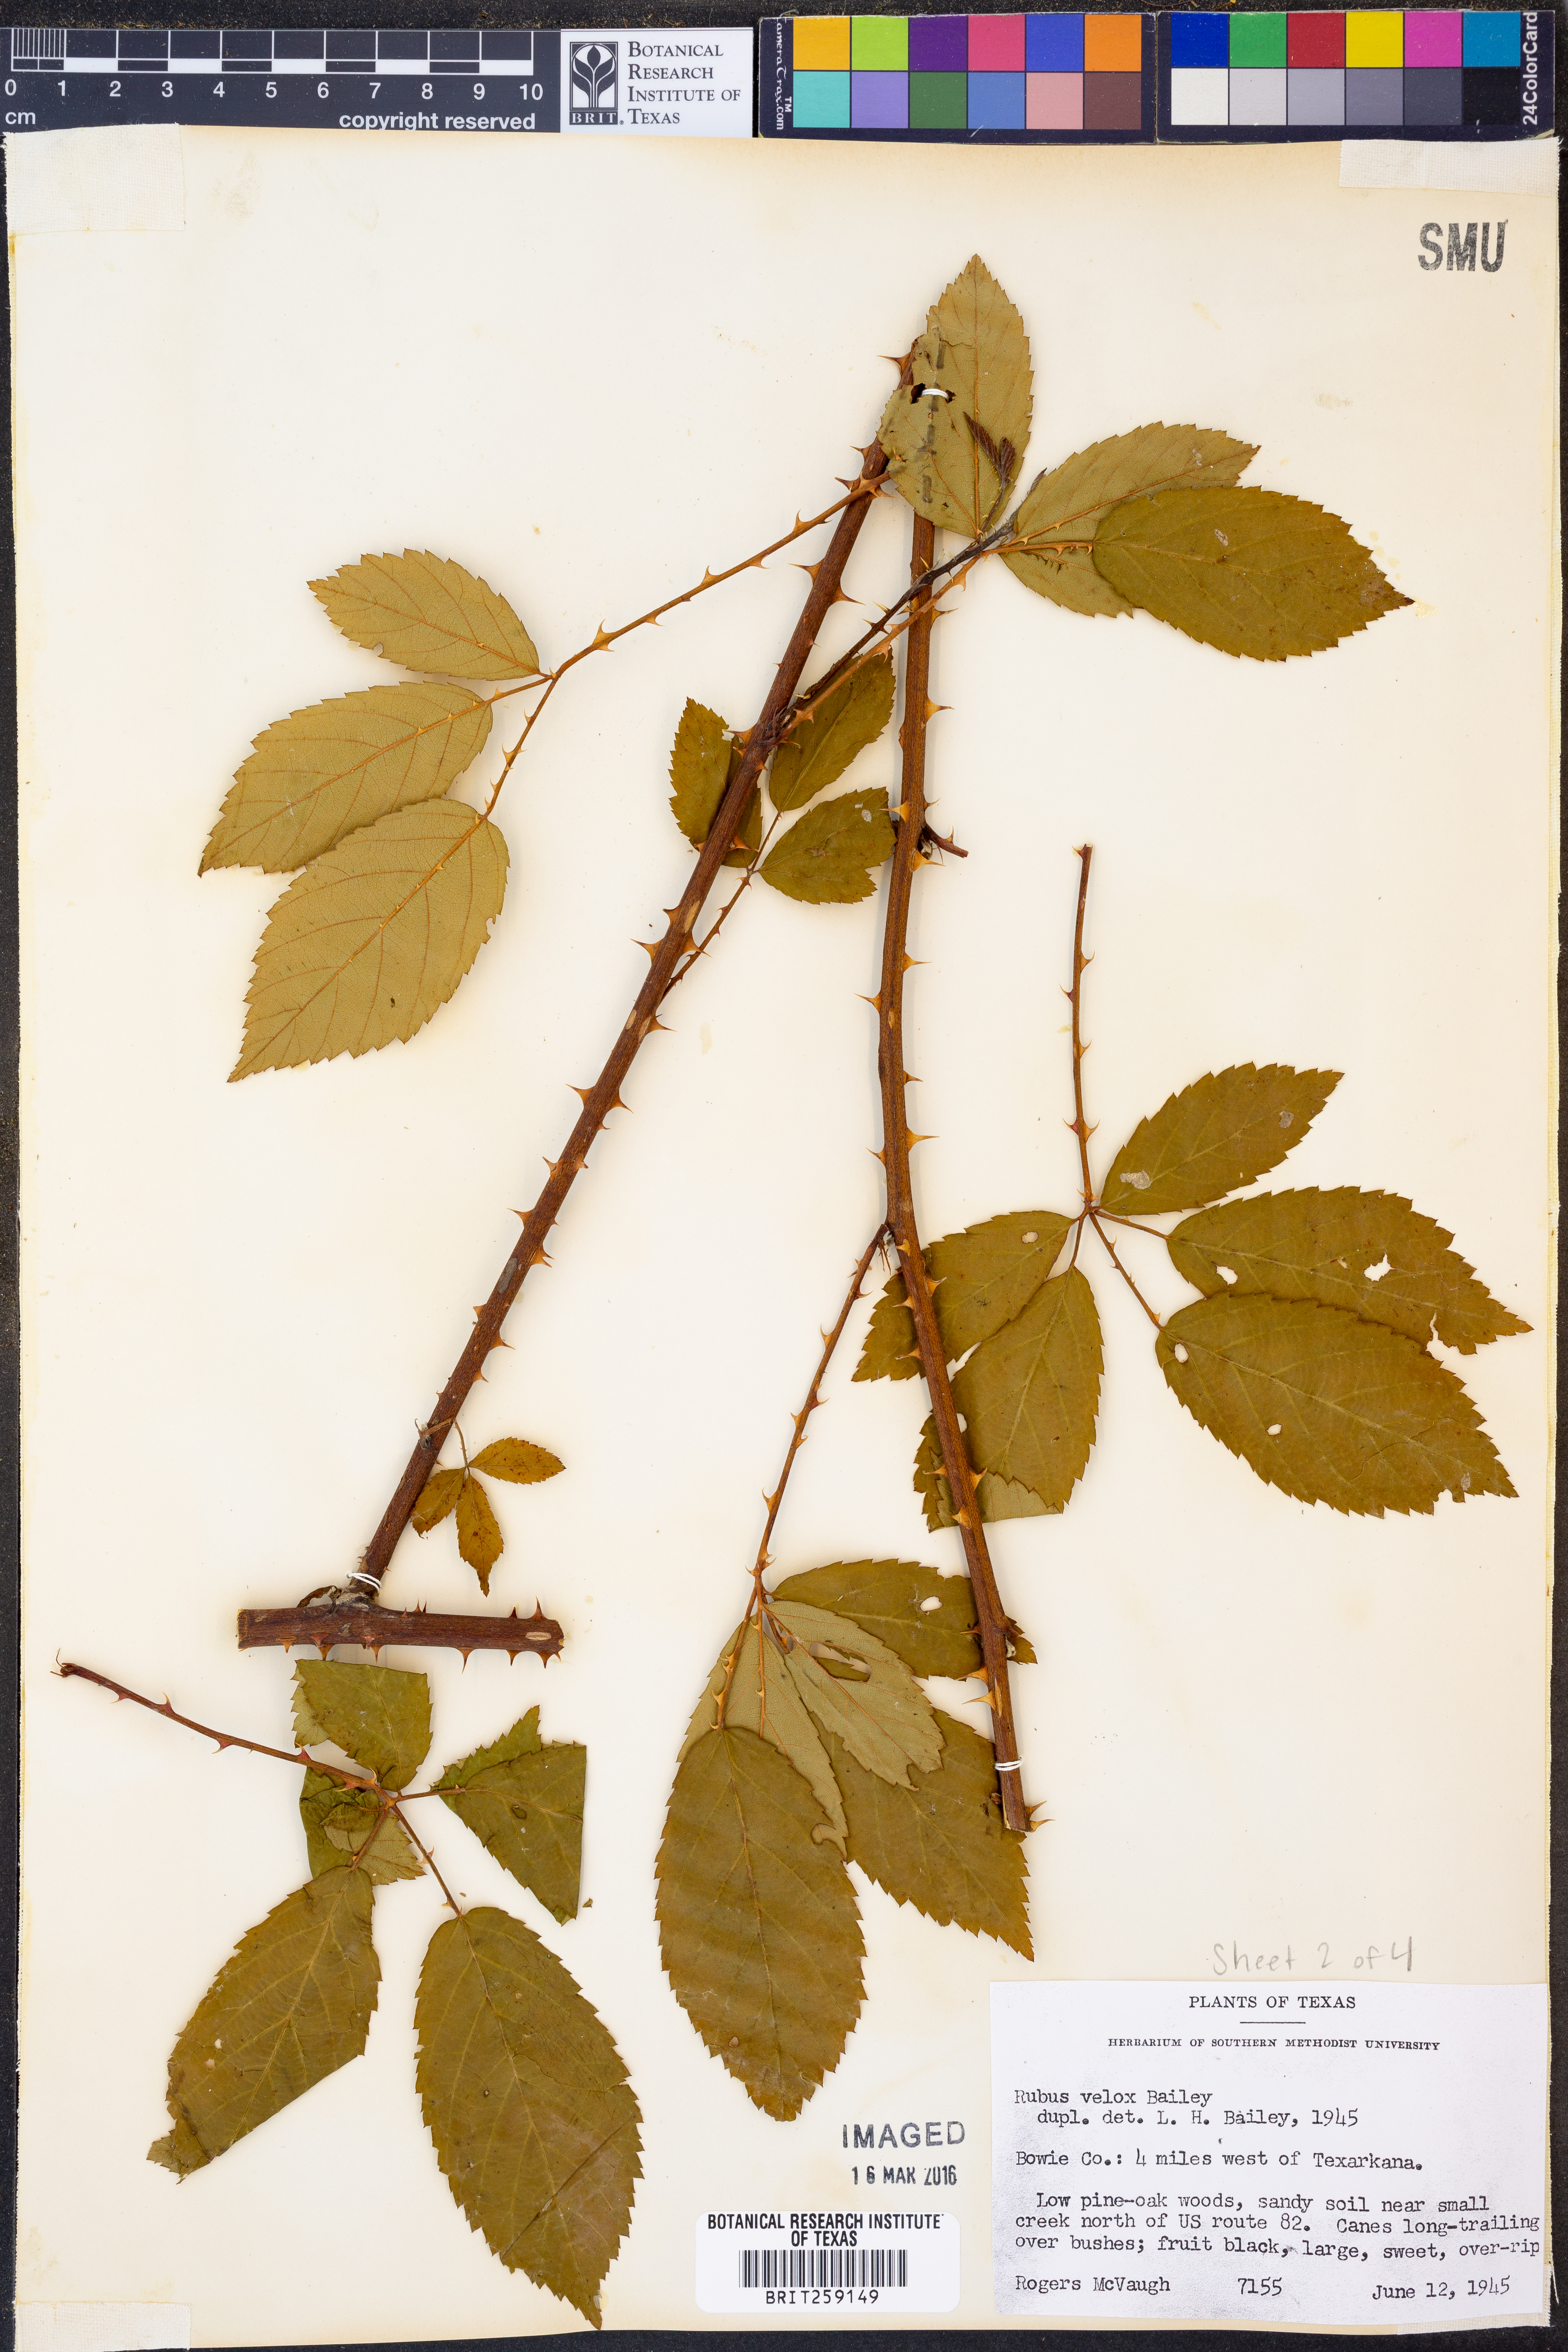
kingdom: Plantae
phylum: Tracheophyta
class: Magnoliopsida
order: Rosales
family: Rosaceae
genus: Rubus
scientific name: Rubus velox
